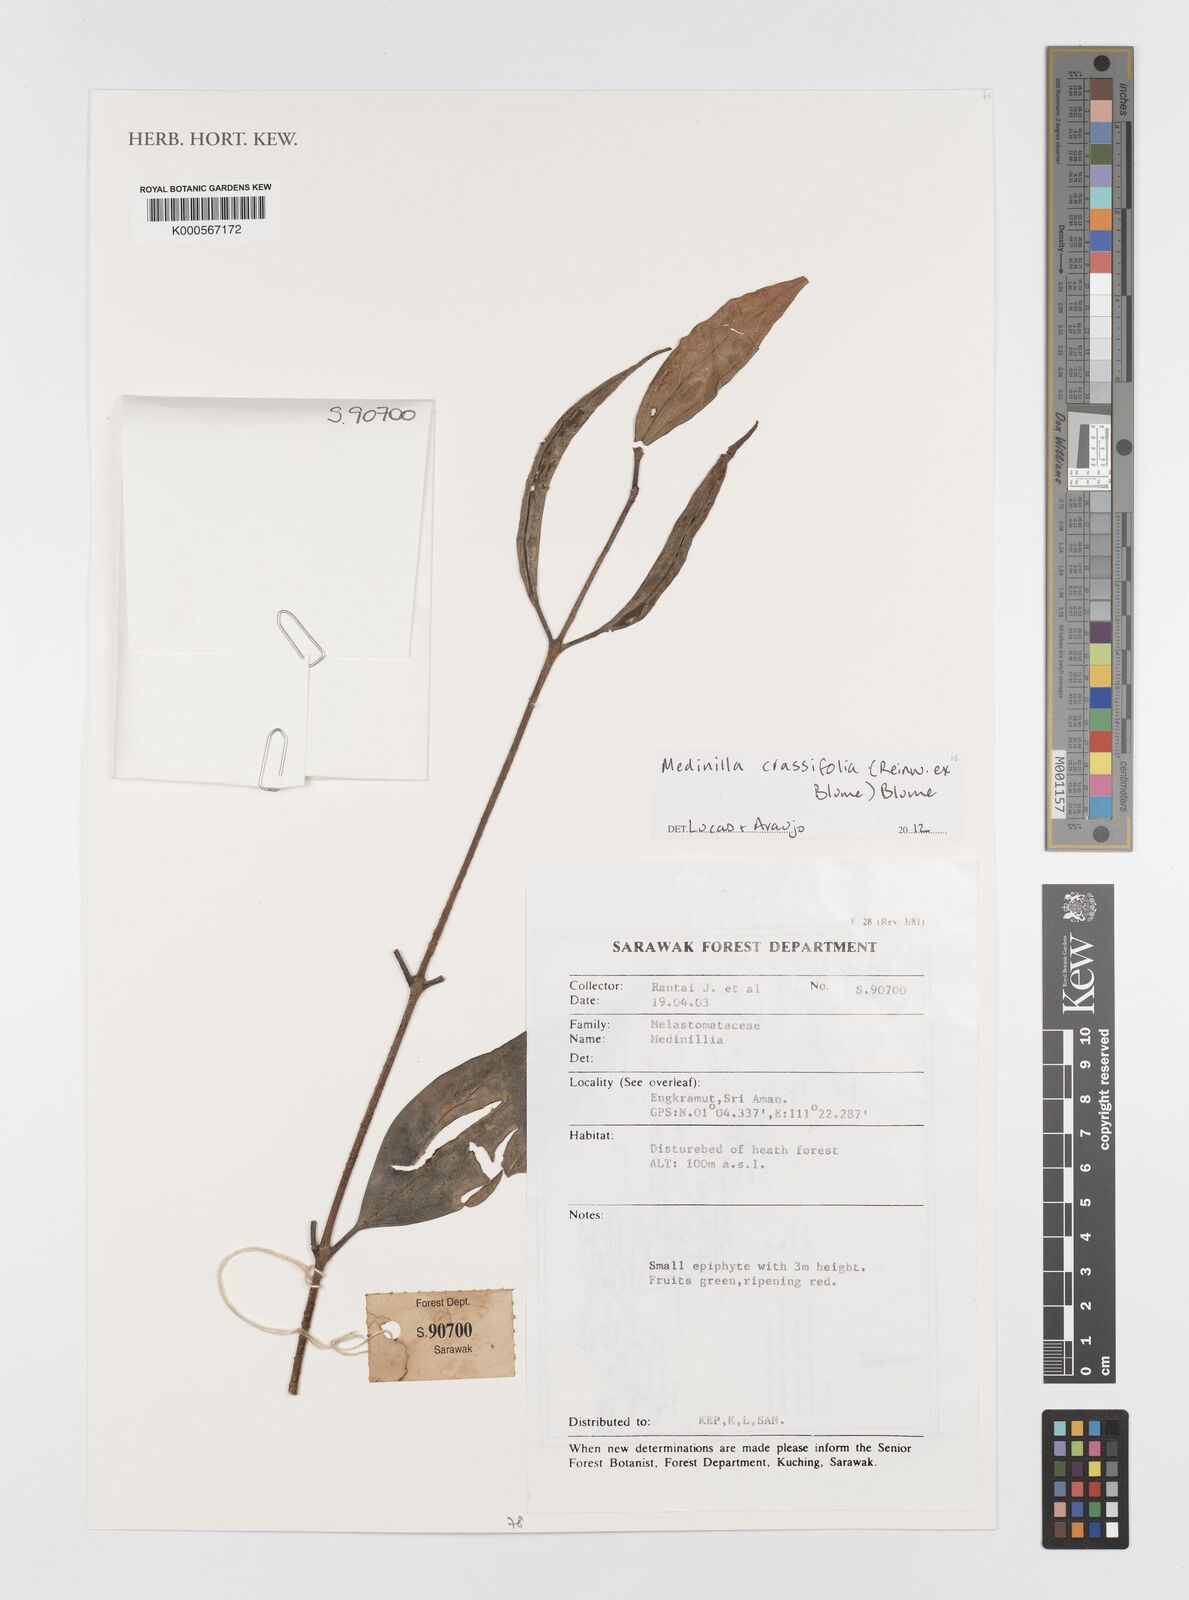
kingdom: Plantae
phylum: Tracheophyta
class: Magnoliopsida
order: Myrtales
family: Melastomataceae
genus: Medinilla
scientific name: Medinilla crassifolia
